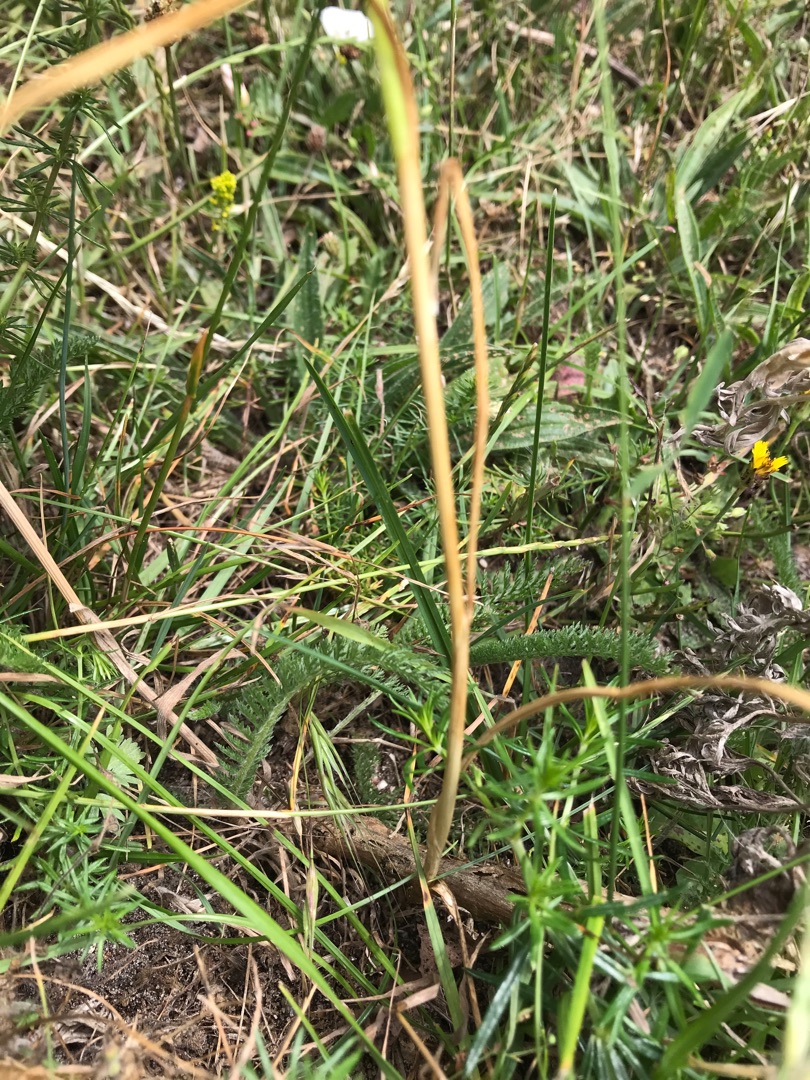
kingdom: Plantae
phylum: Tracheophyta
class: Liliopsida
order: Asparagales
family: Amaryllidaceae
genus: Allium
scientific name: Allium vineale
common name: Sand-løg
